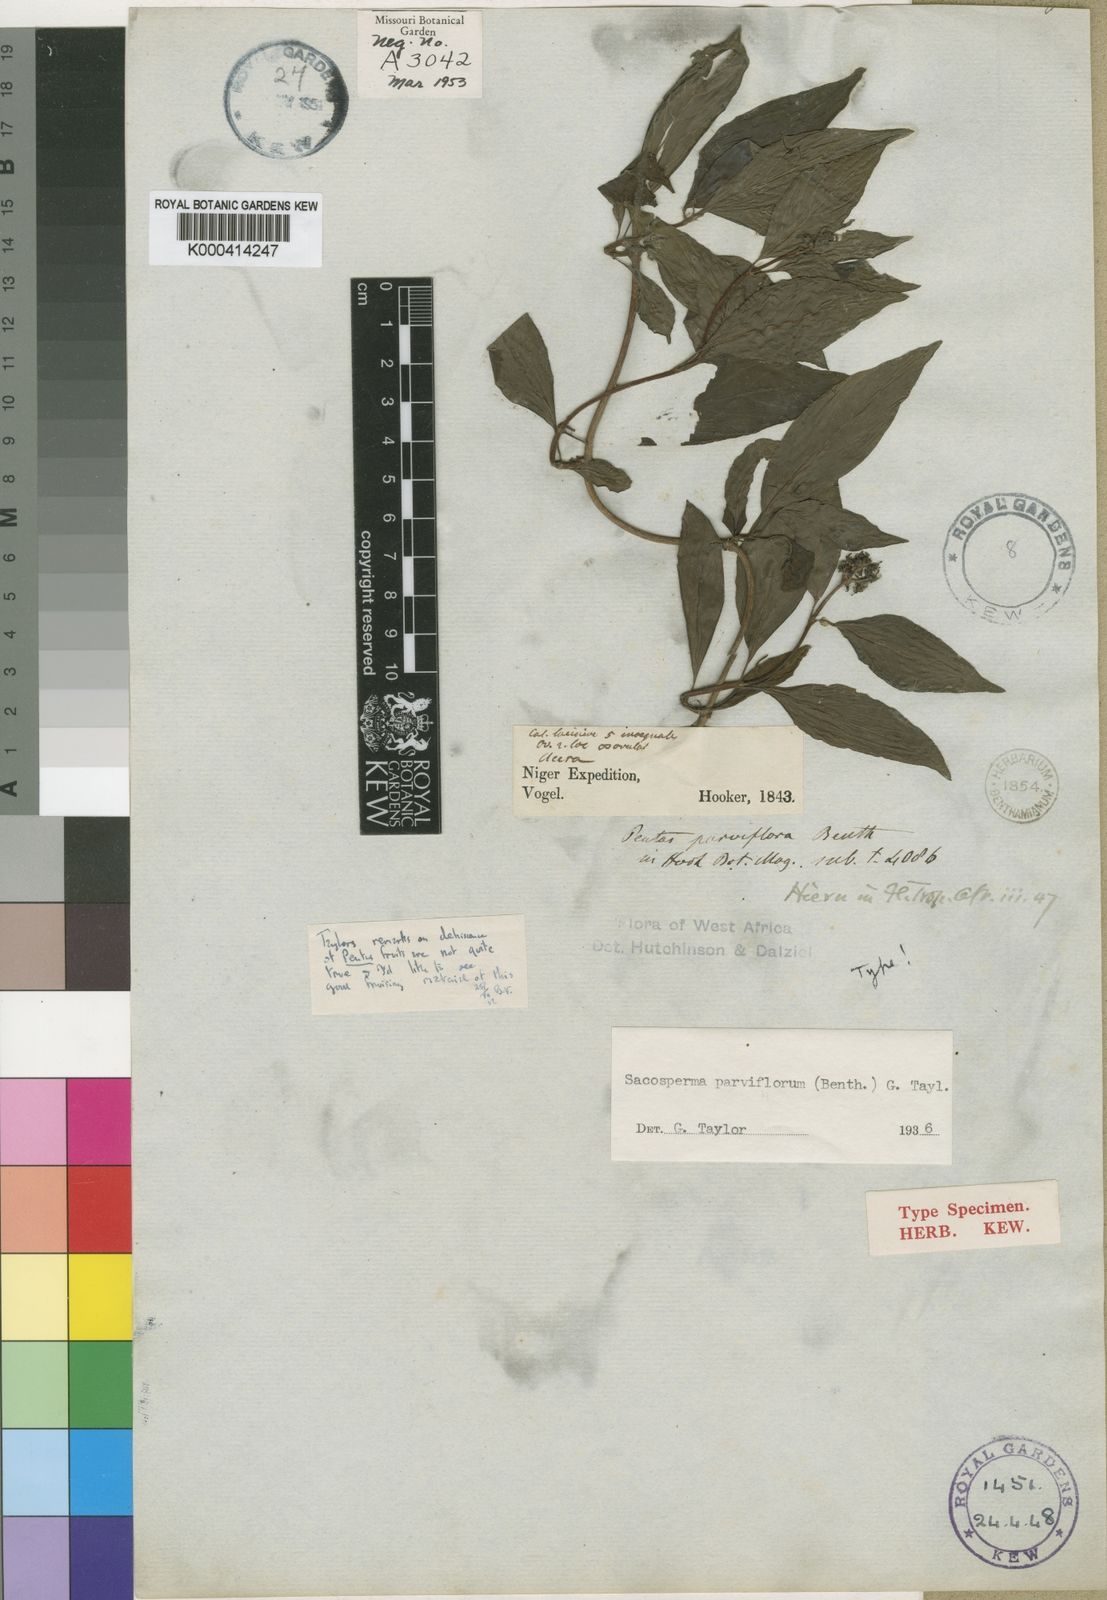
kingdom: Plantae
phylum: Tracheophyta
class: Magnoliopsida
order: Gentianales
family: Rubiaceae
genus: Sacosperma
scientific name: Sacosperma parviflorum
